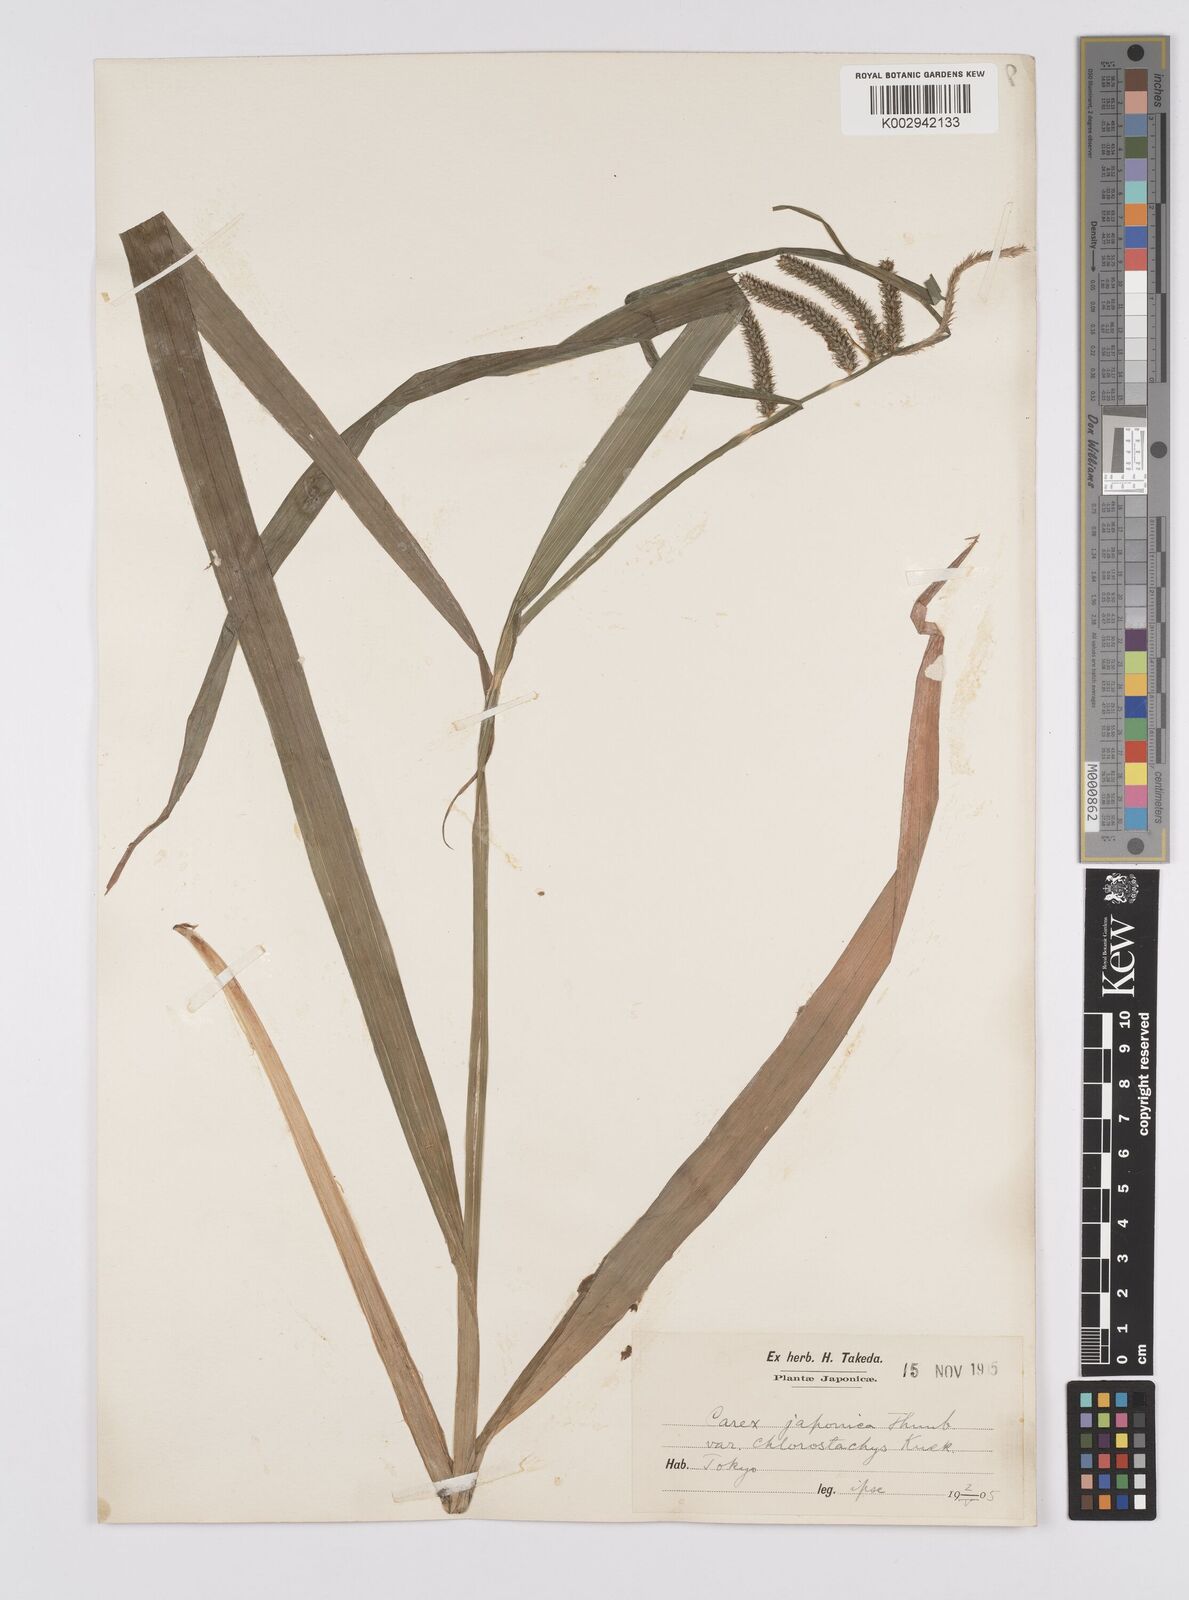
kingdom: Plantae
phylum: Tracheophyta
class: Liliopsida
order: Poales
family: Cyperaceae
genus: Carex
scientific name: Carex japonica
